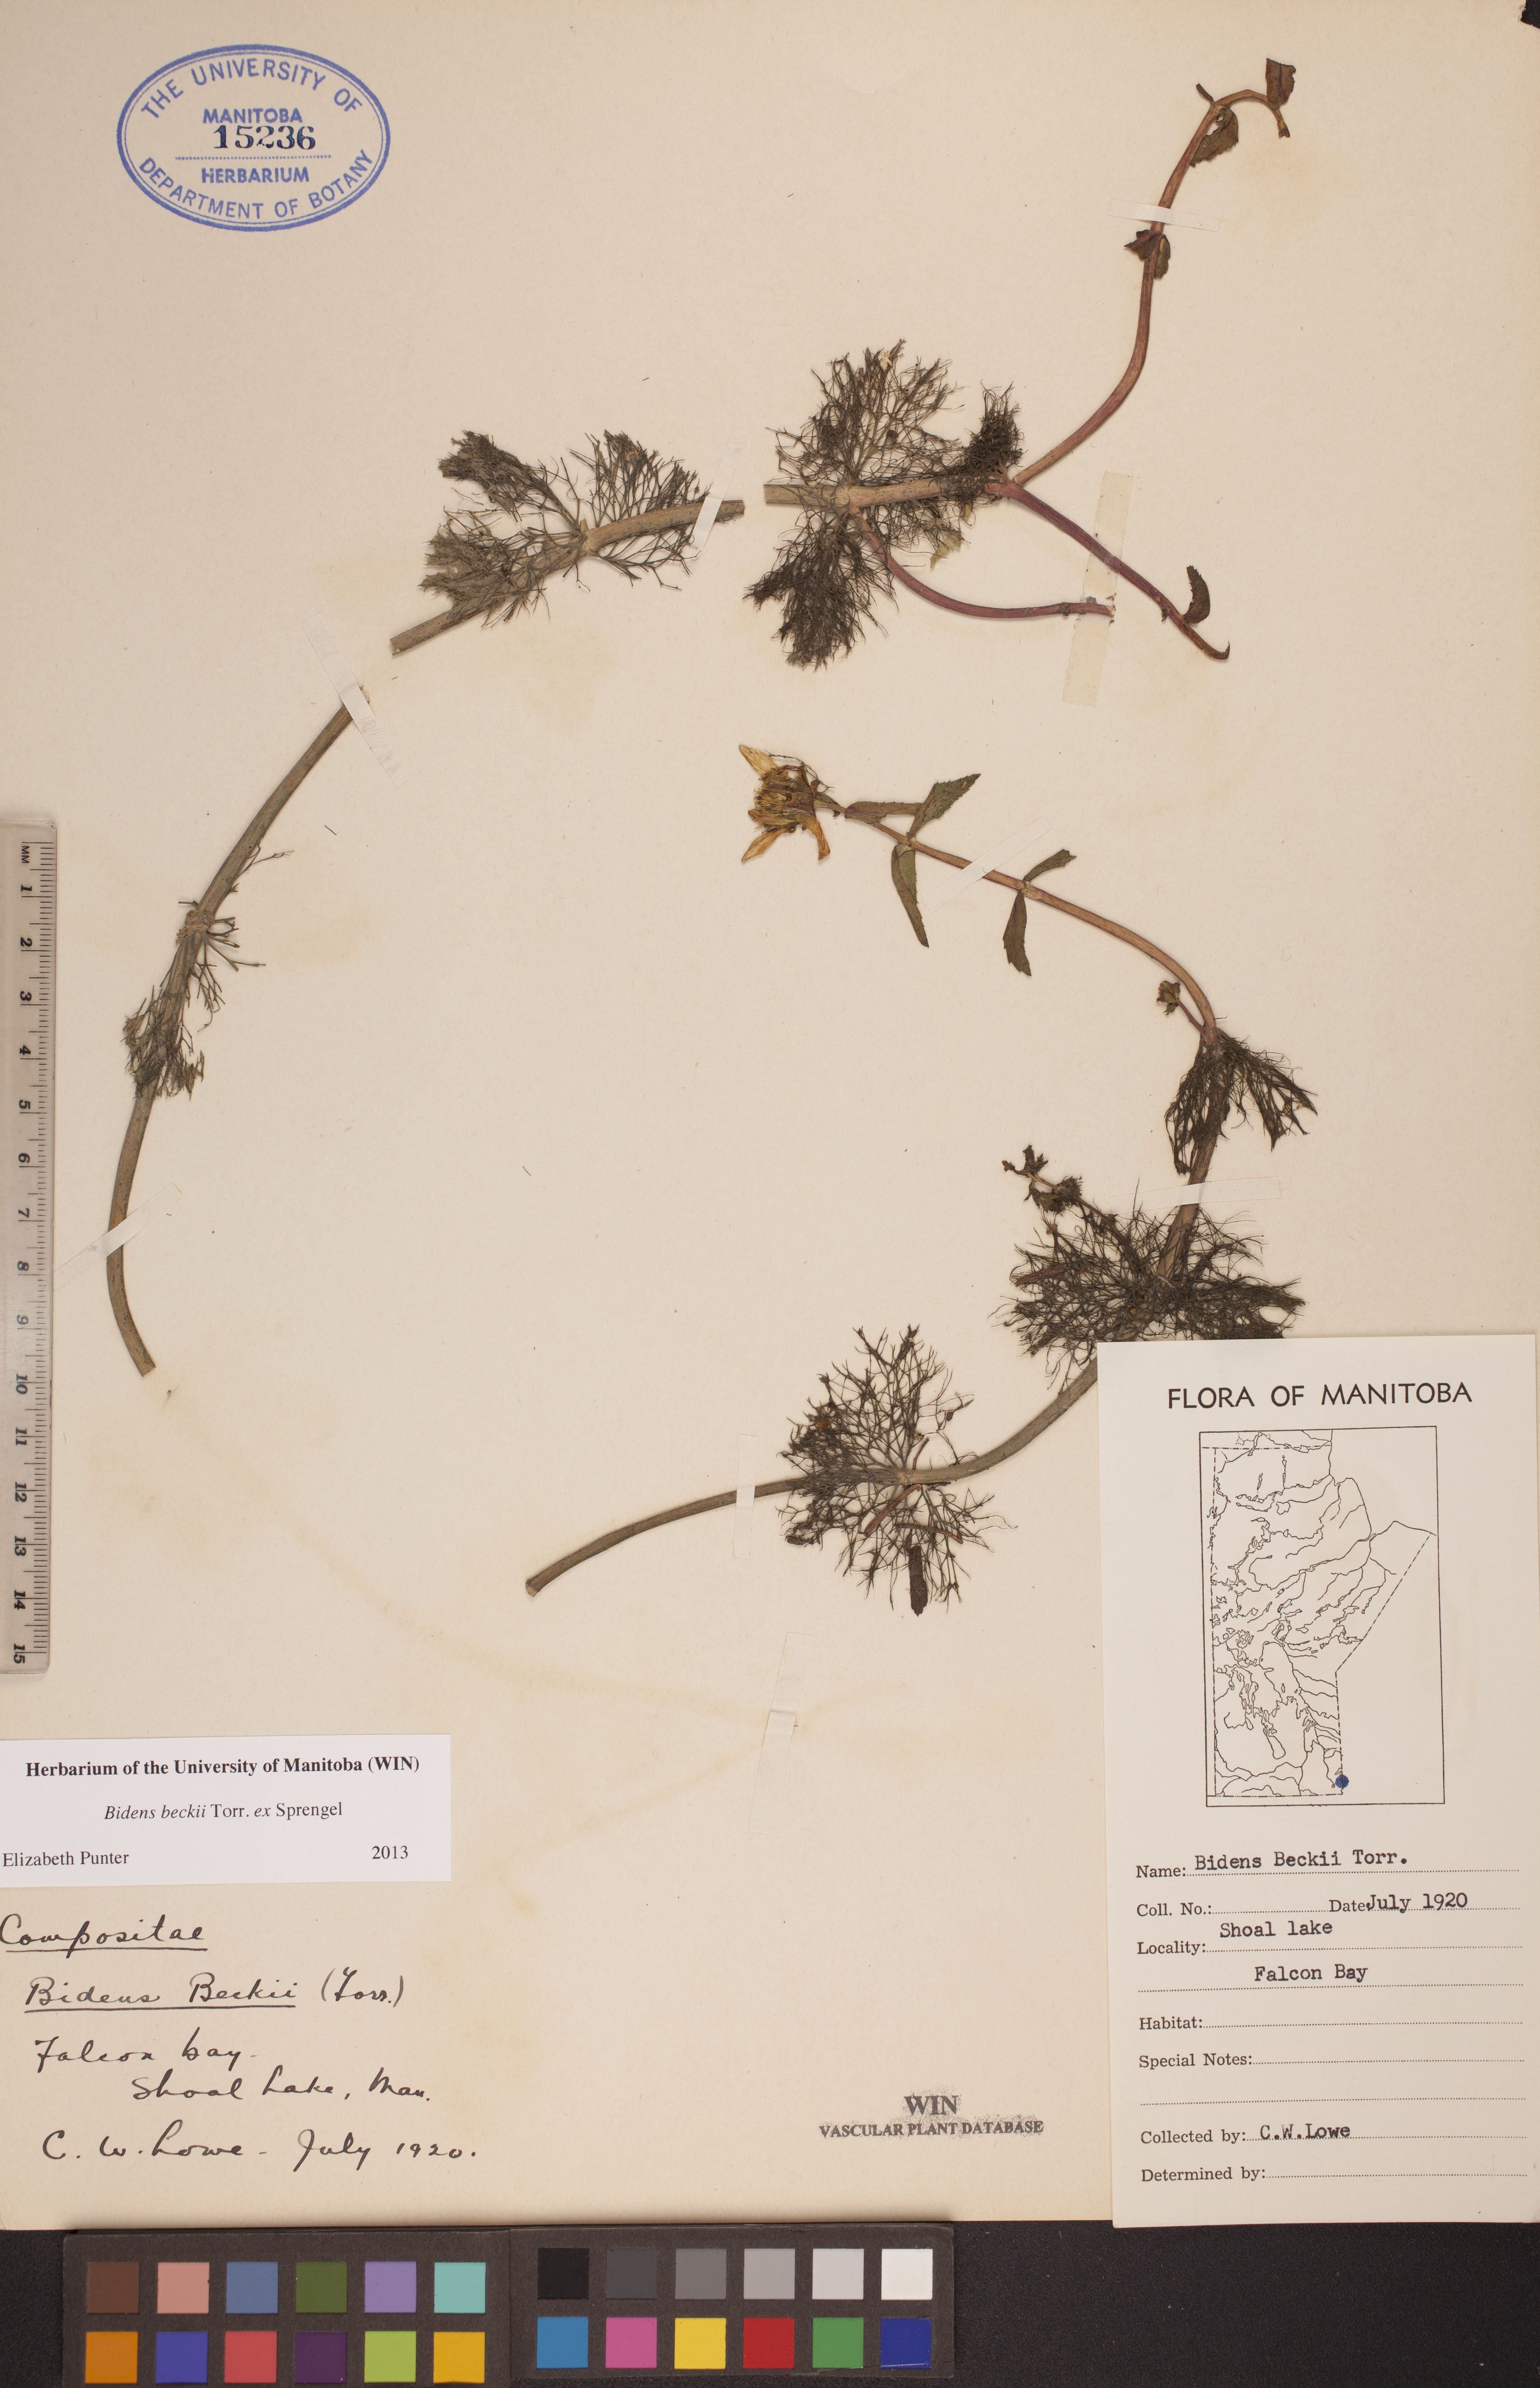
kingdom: Plantae
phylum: Tracheophyta
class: Magnoliopsida
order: Asterales
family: Asteraceae
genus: Bidens
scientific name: Bidens beckii
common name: Beck's beggarticks
